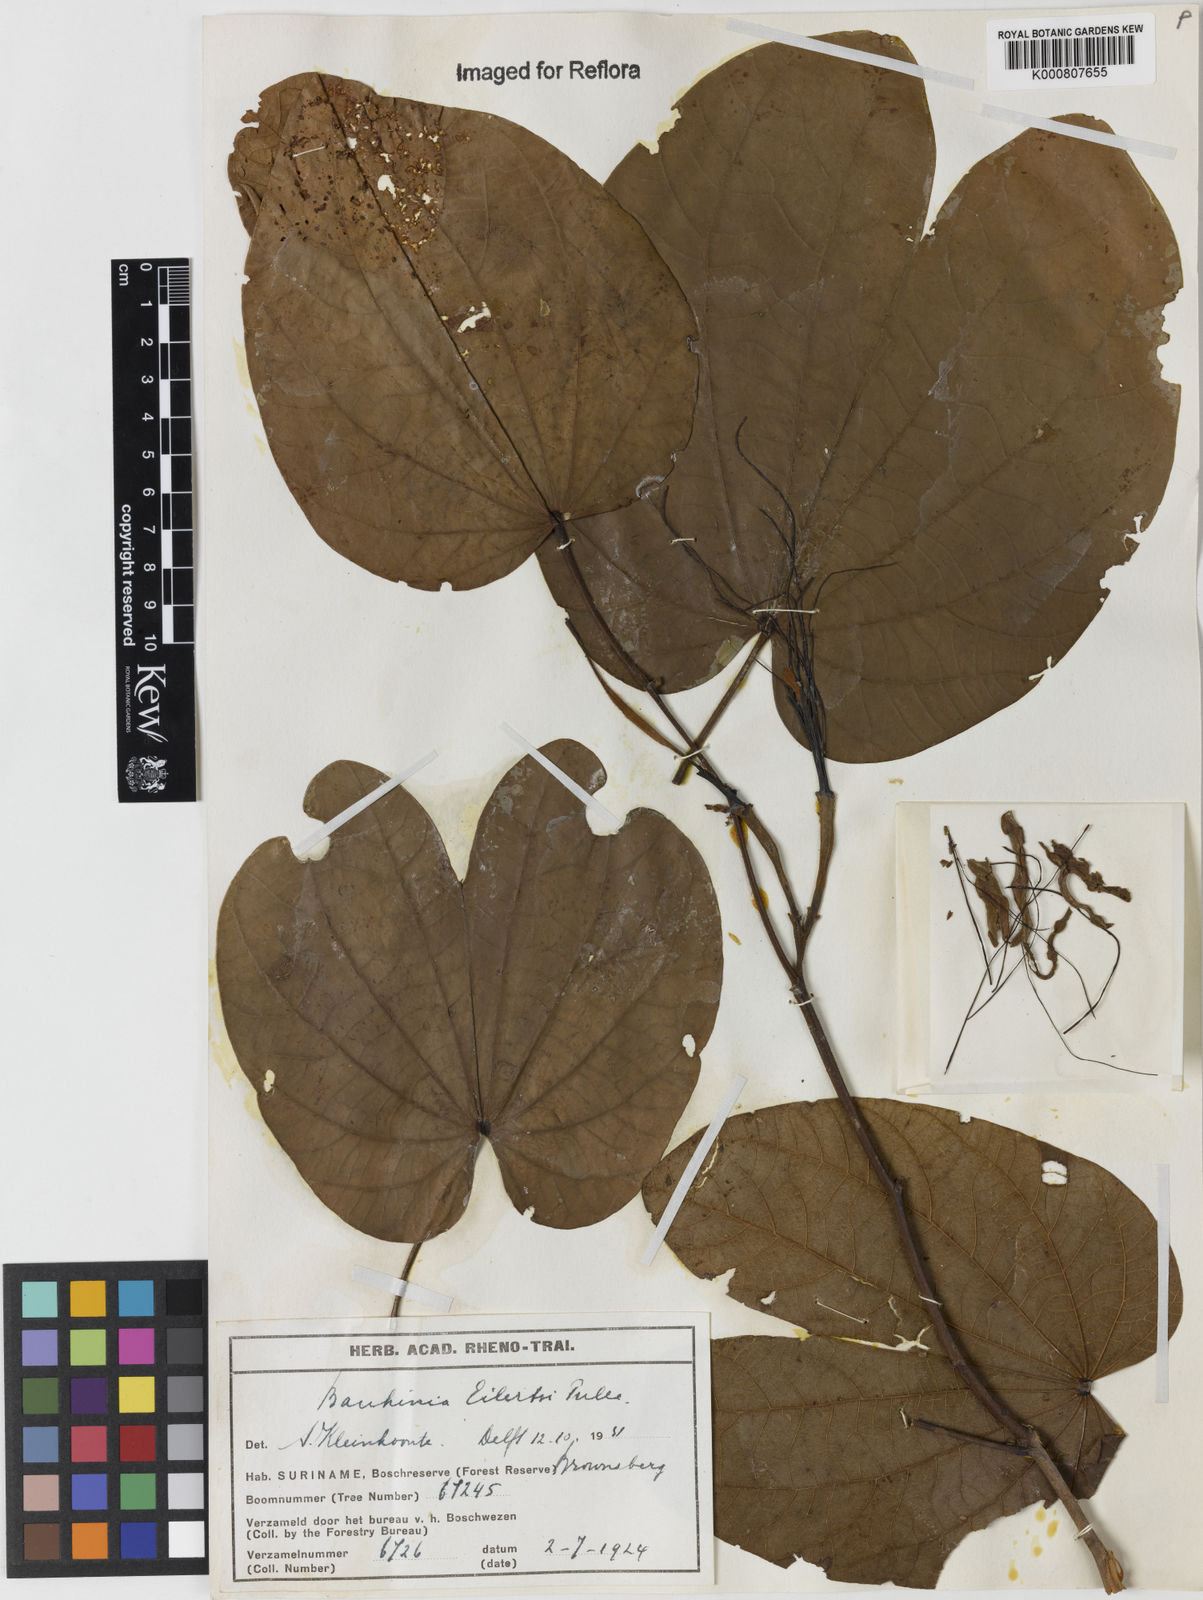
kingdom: Plantae
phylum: Tracheophyta
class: Magnoliopsida
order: Fabales
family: Fabaceae
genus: Bauhinia
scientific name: Bauhinia eilertsii
